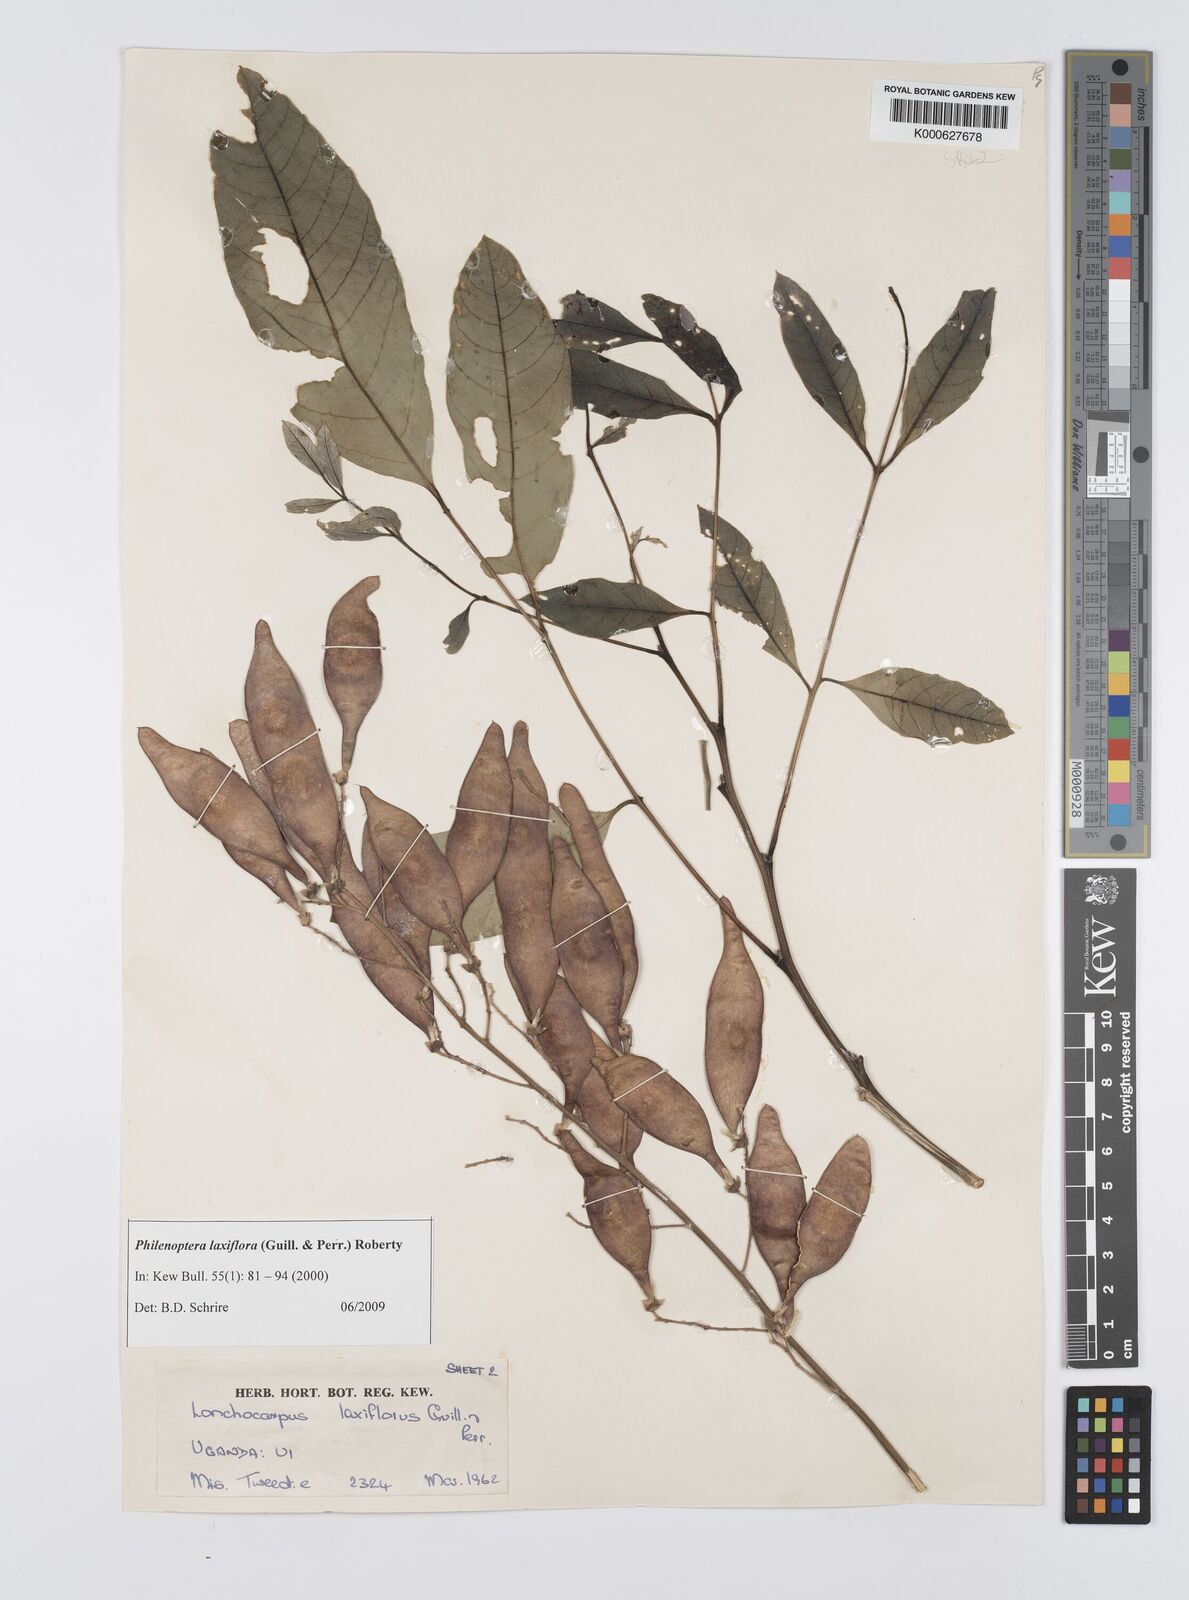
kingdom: Plantae
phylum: Tracheophyta
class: Magnoliopsida
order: Fabales
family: Fabaceae
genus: Philenoptera
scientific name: Philenoptera laxiflora
